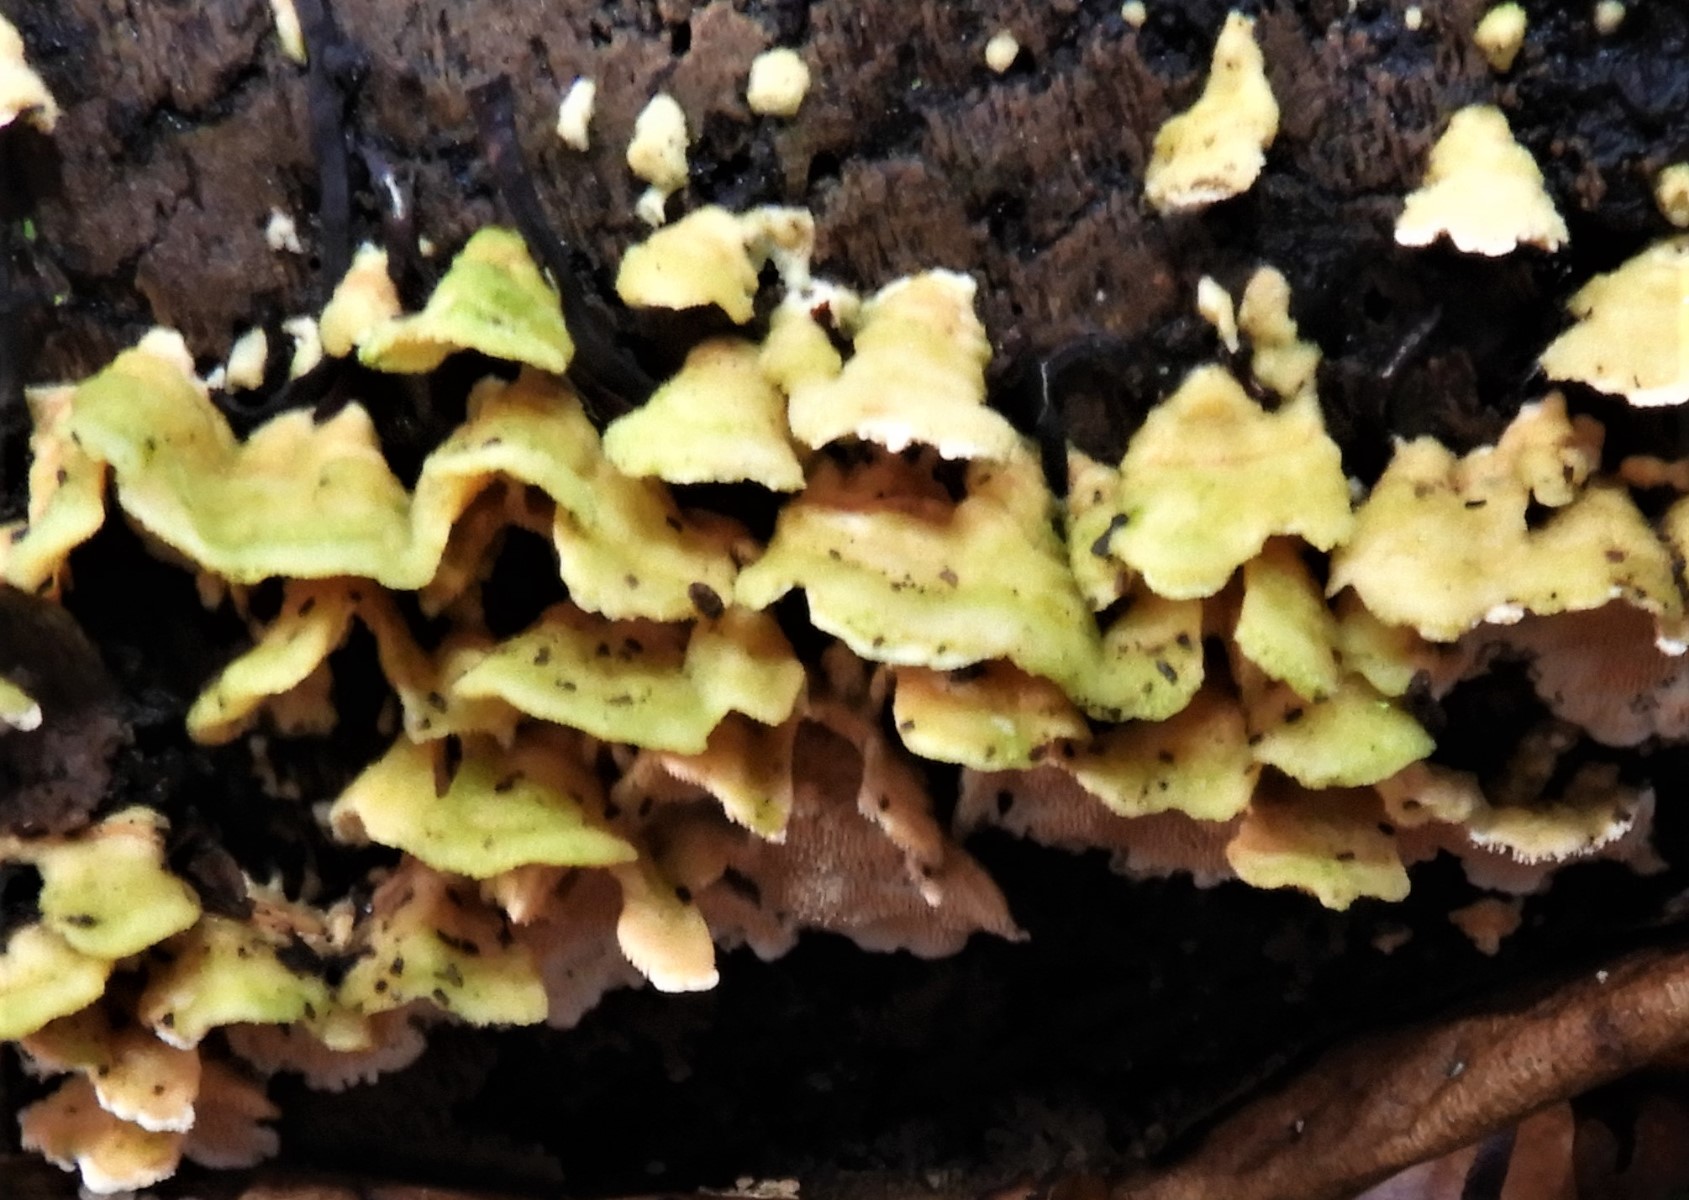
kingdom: Fungi
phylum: Basidiomycota
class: Agaricomycetes
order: Polyporales
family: Steccherinaceae
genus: Steccherinum
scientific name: Steccherinum ochraceum
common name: almindelig skønpig
